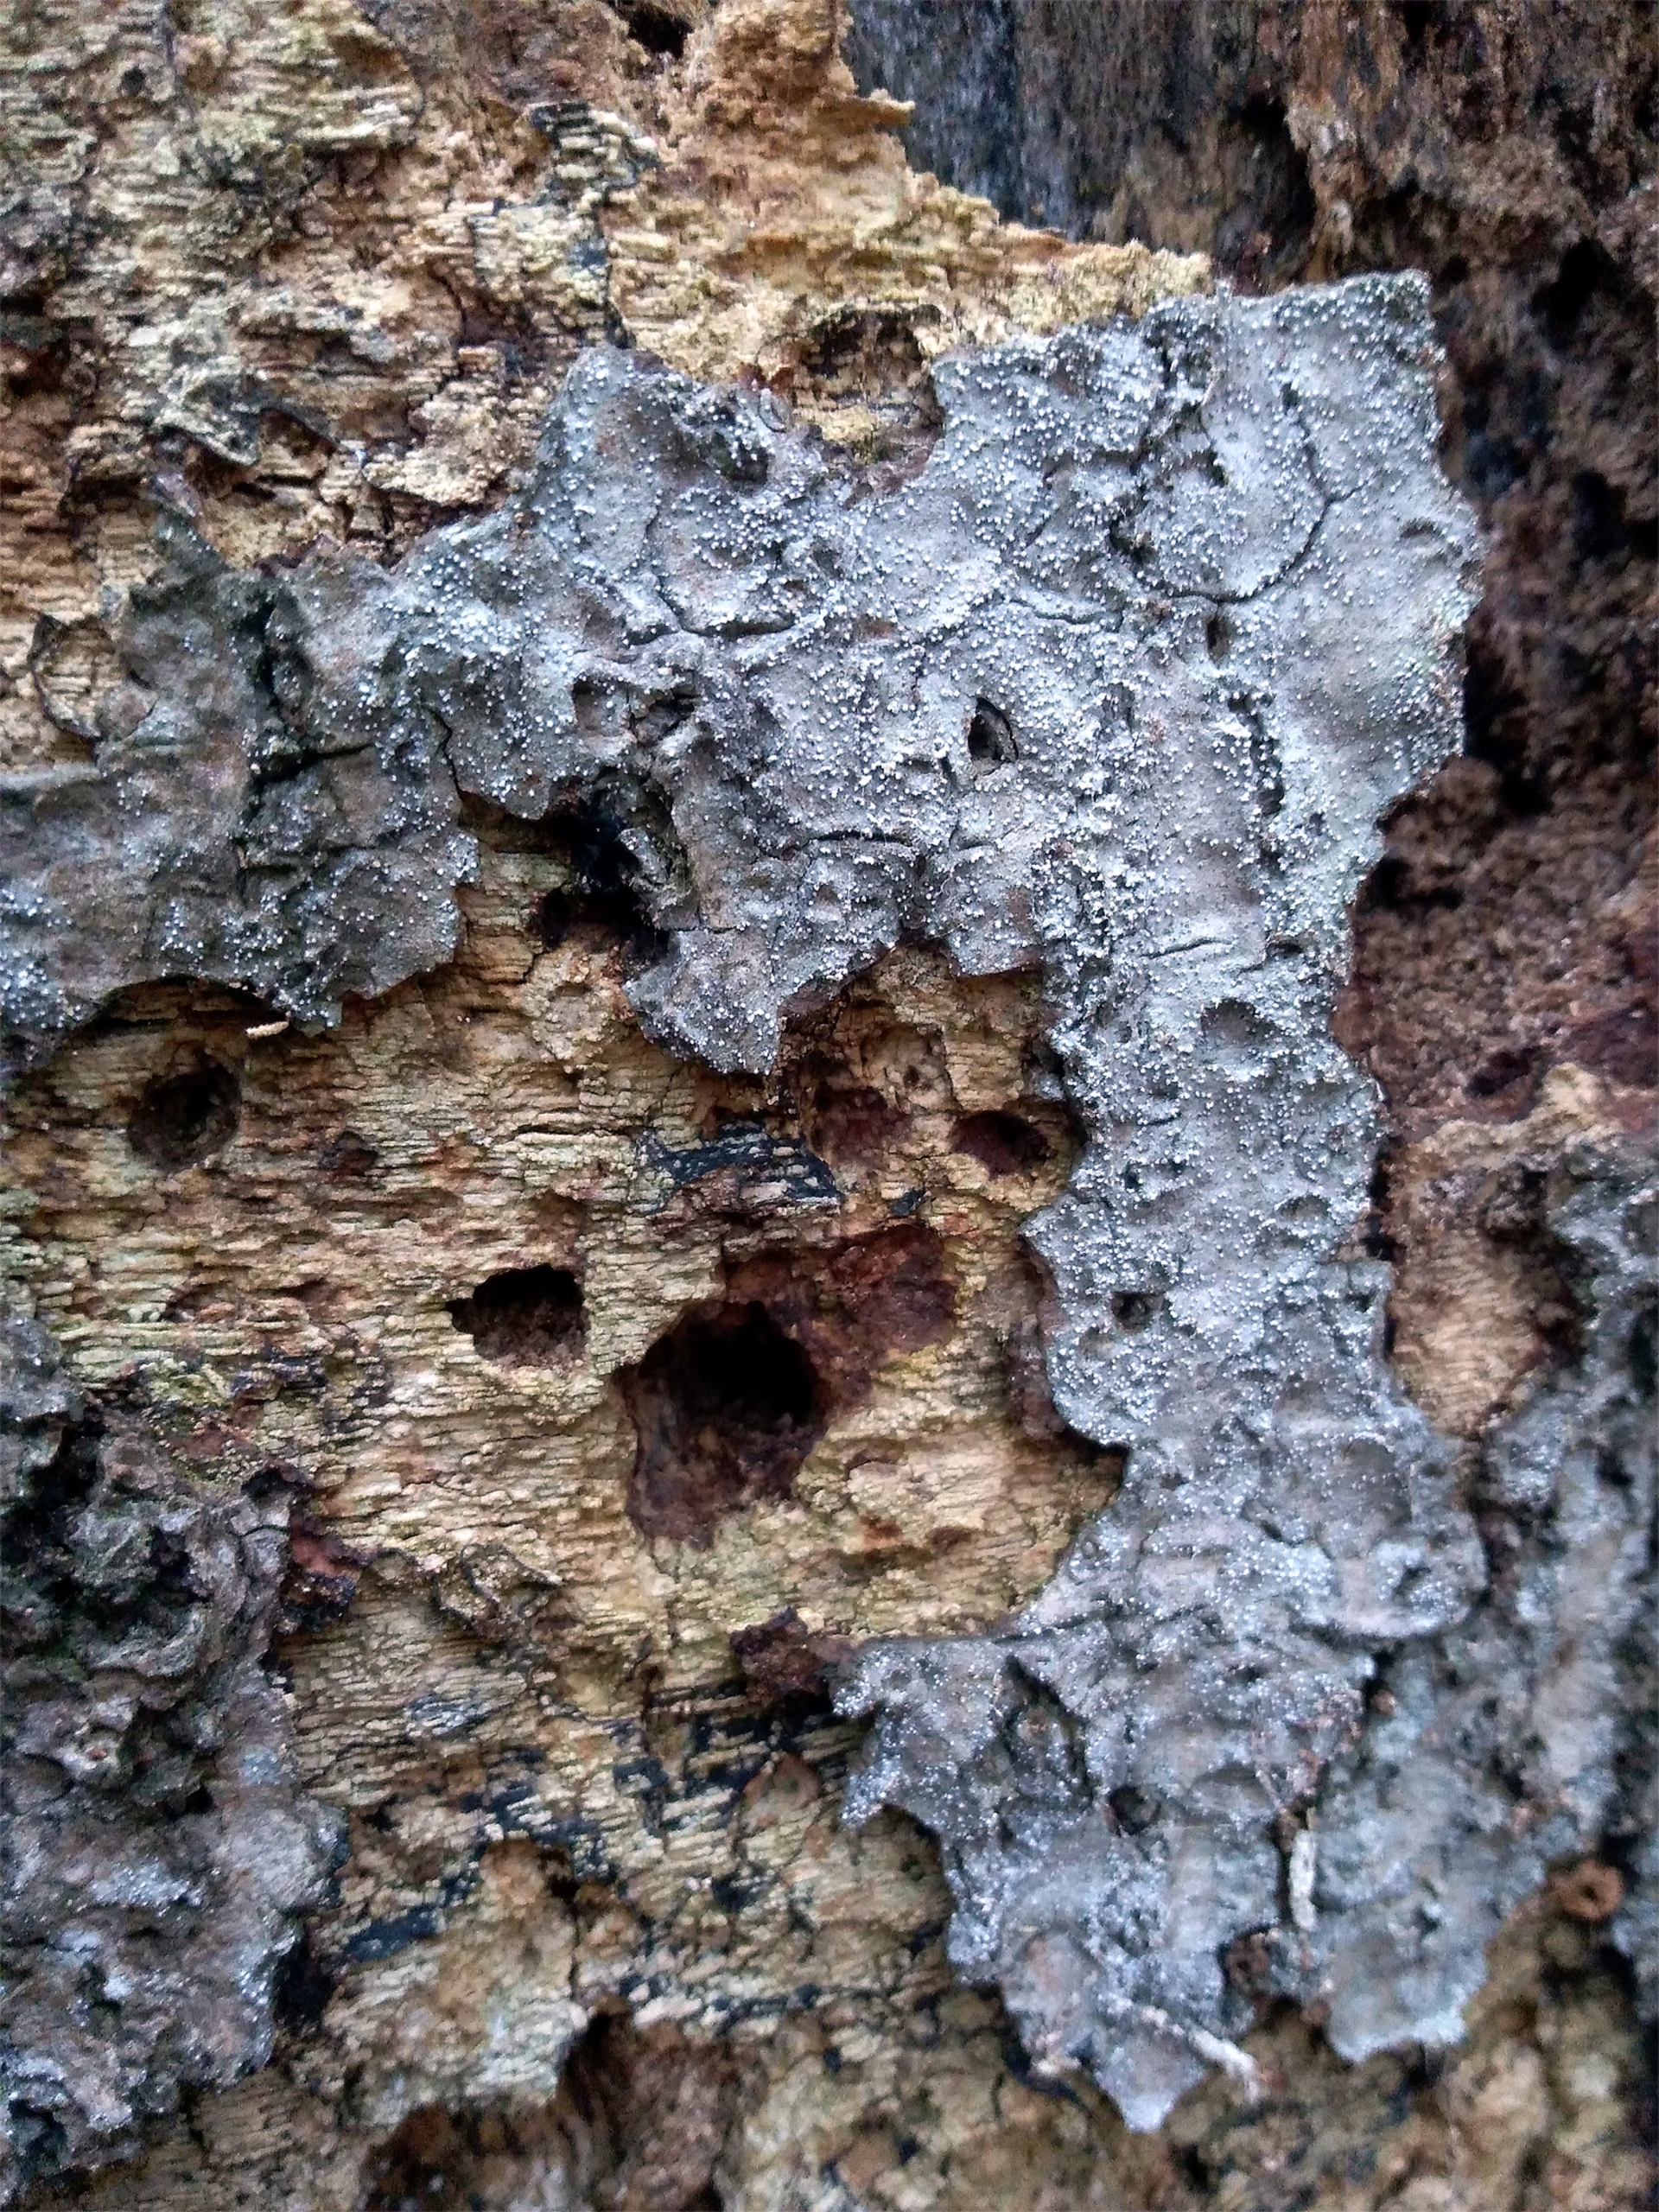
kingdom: Fungi
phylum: Ascomycota
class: Arthoniomycetes
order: Arthoniales
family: Opegraphaceae
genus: Opegrapha
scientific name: Opegrapha vermicellifera
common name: Nåleprikket bogstavlav
